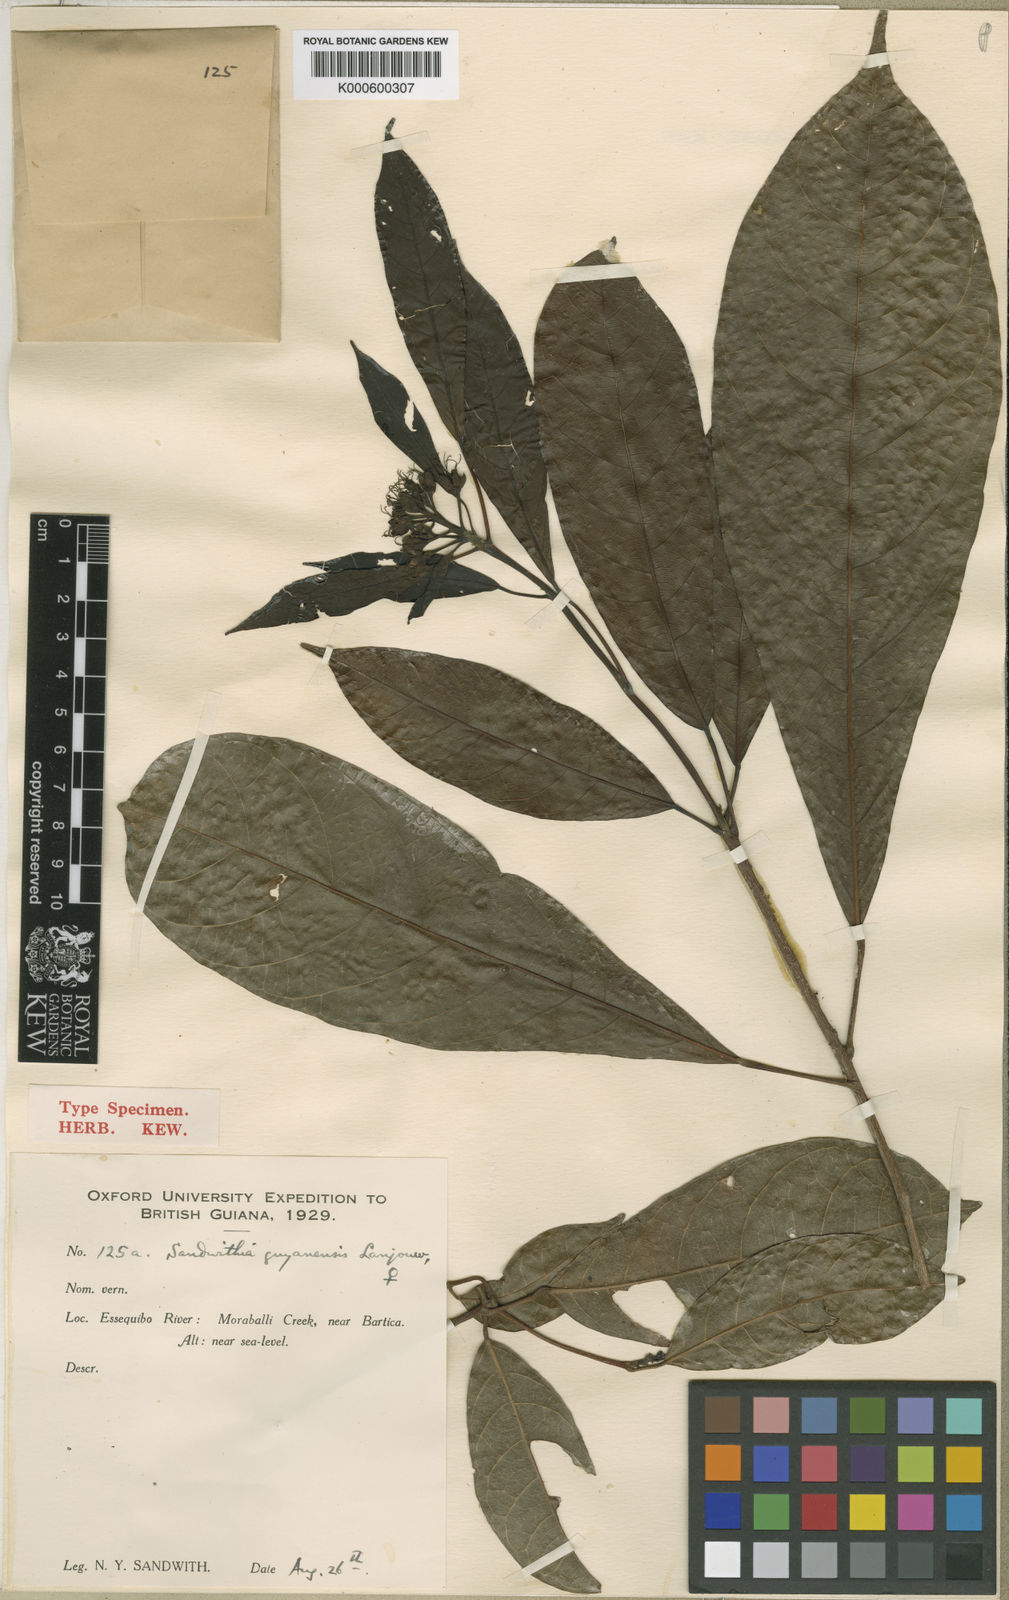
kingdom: Plantae
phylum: Tracheophyta
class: Magnoliopsida
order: Malpighiales
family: Euphorbiaceae
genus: Sandwithia
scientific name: Sandwithia guyanensis
